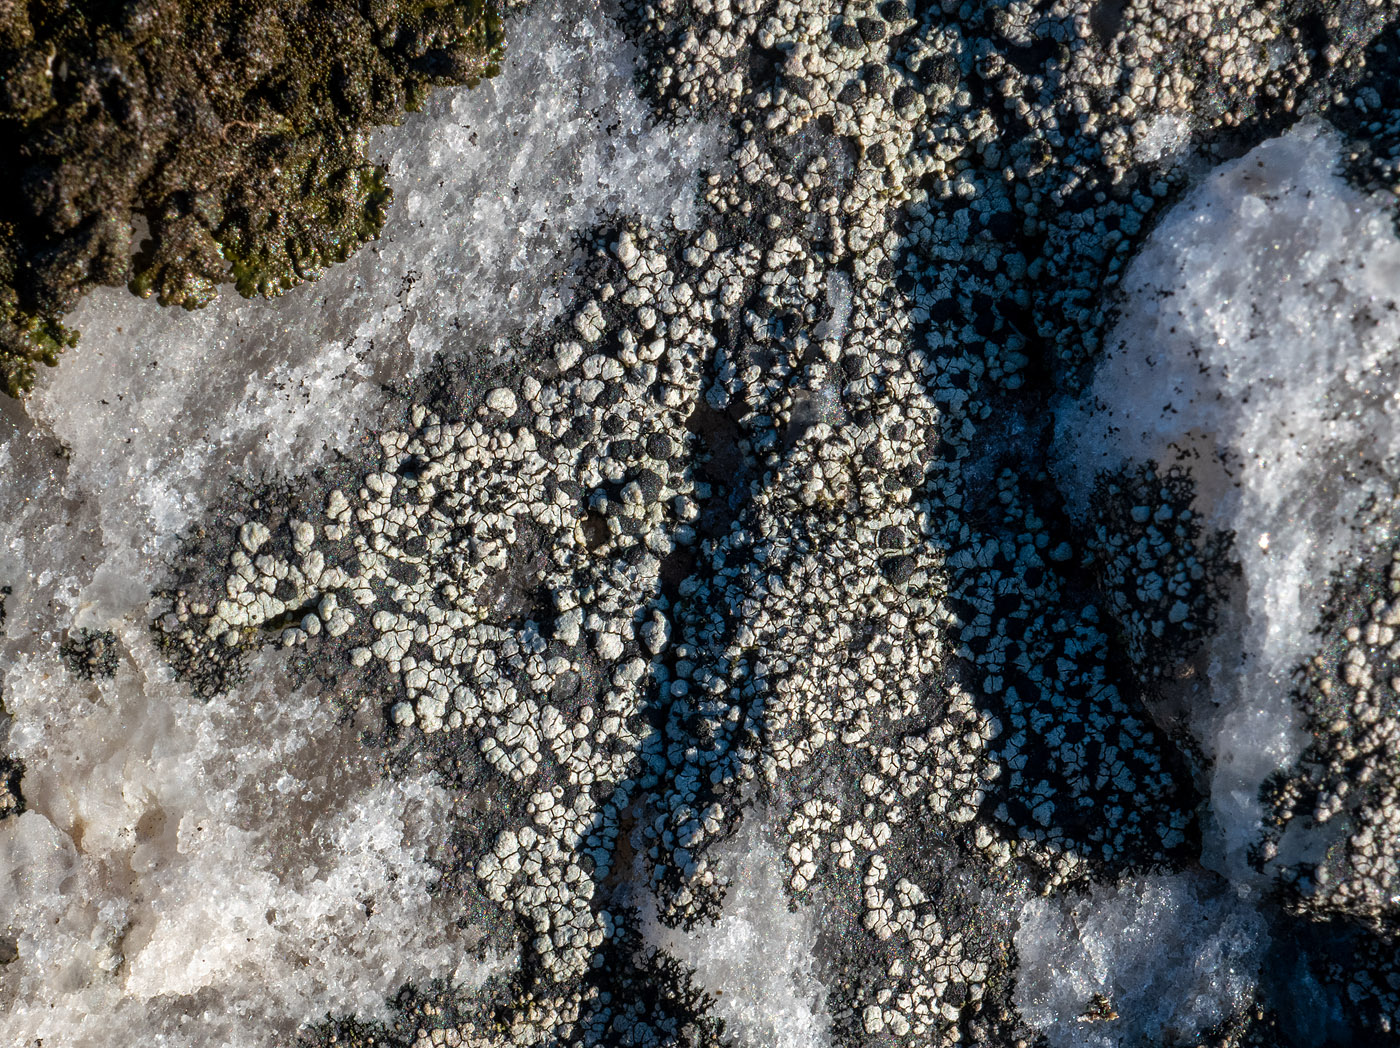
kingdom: Fungi
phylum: Ascomycota
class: Lecanoromycetes
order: Rhizocarpales
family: Rhizocarpaceae
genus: Rhizocarpon
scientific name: Rhizocarpon richardii
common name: Kyst-landkortlav
